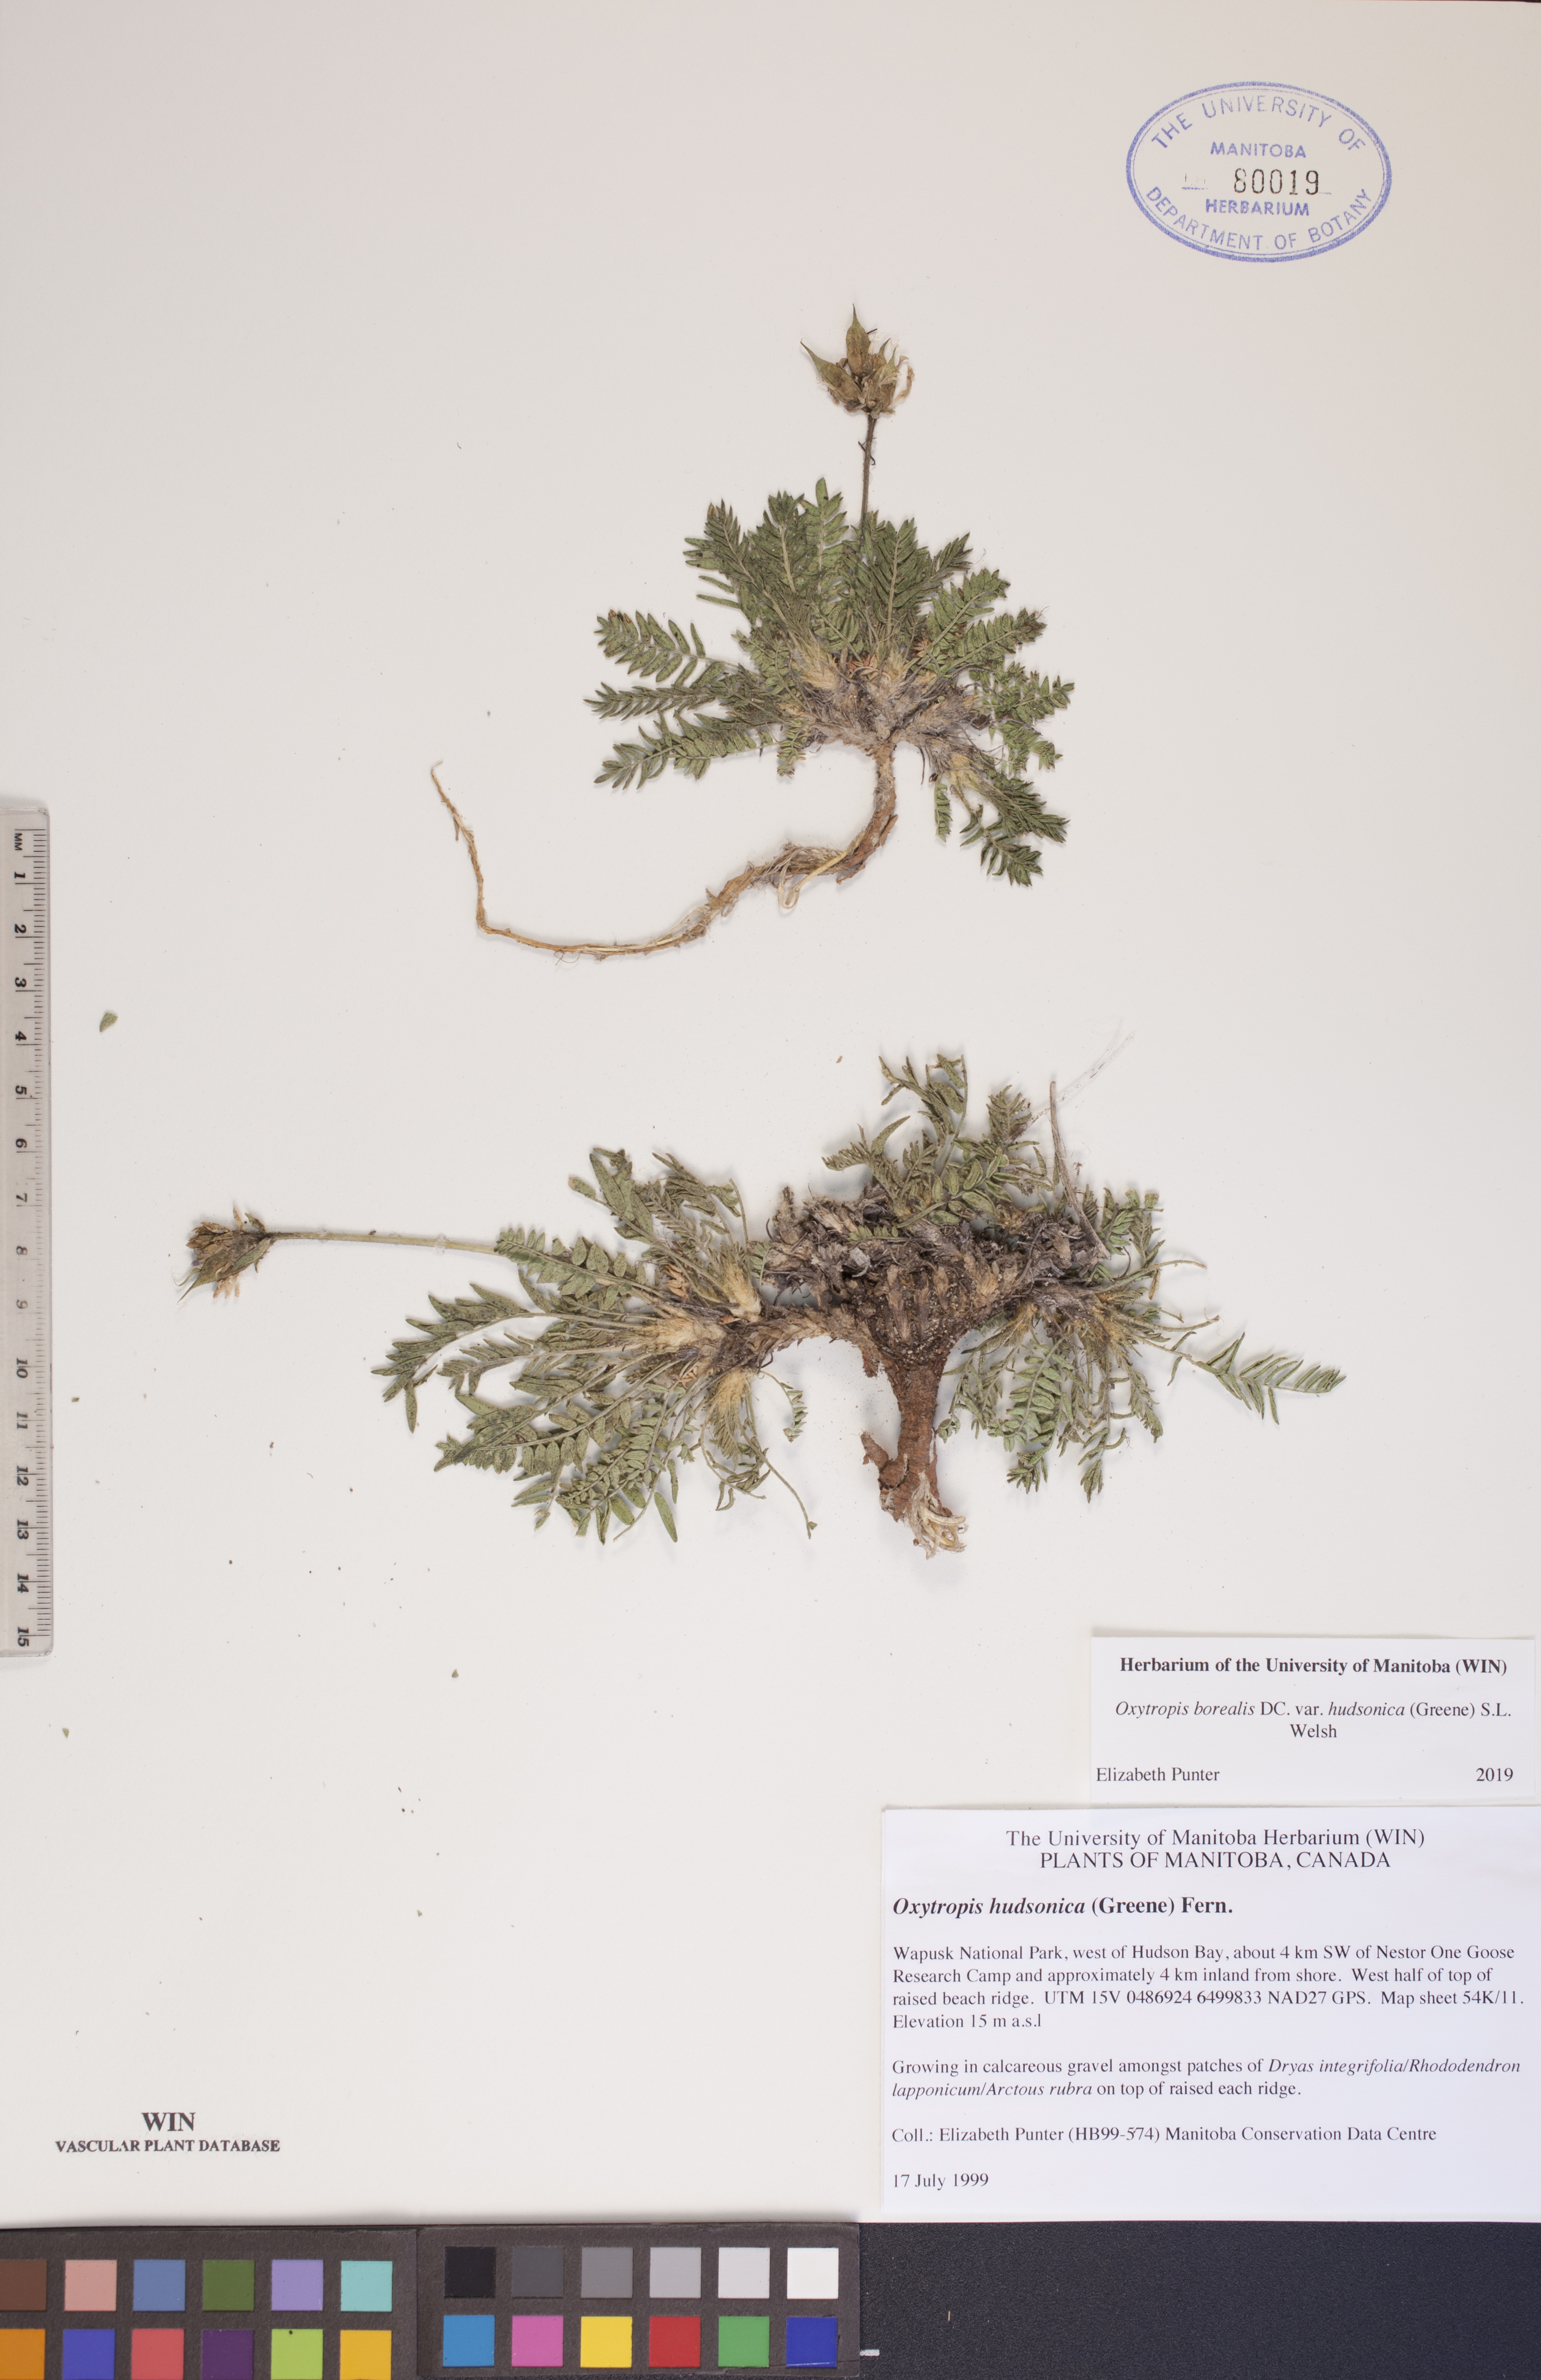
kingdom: Plantae
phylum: Tracheophyta
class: Magnoliopsida
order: Fabales
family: Fabaceae
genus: Oxytropis
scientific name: Oxytropis hudsonica
